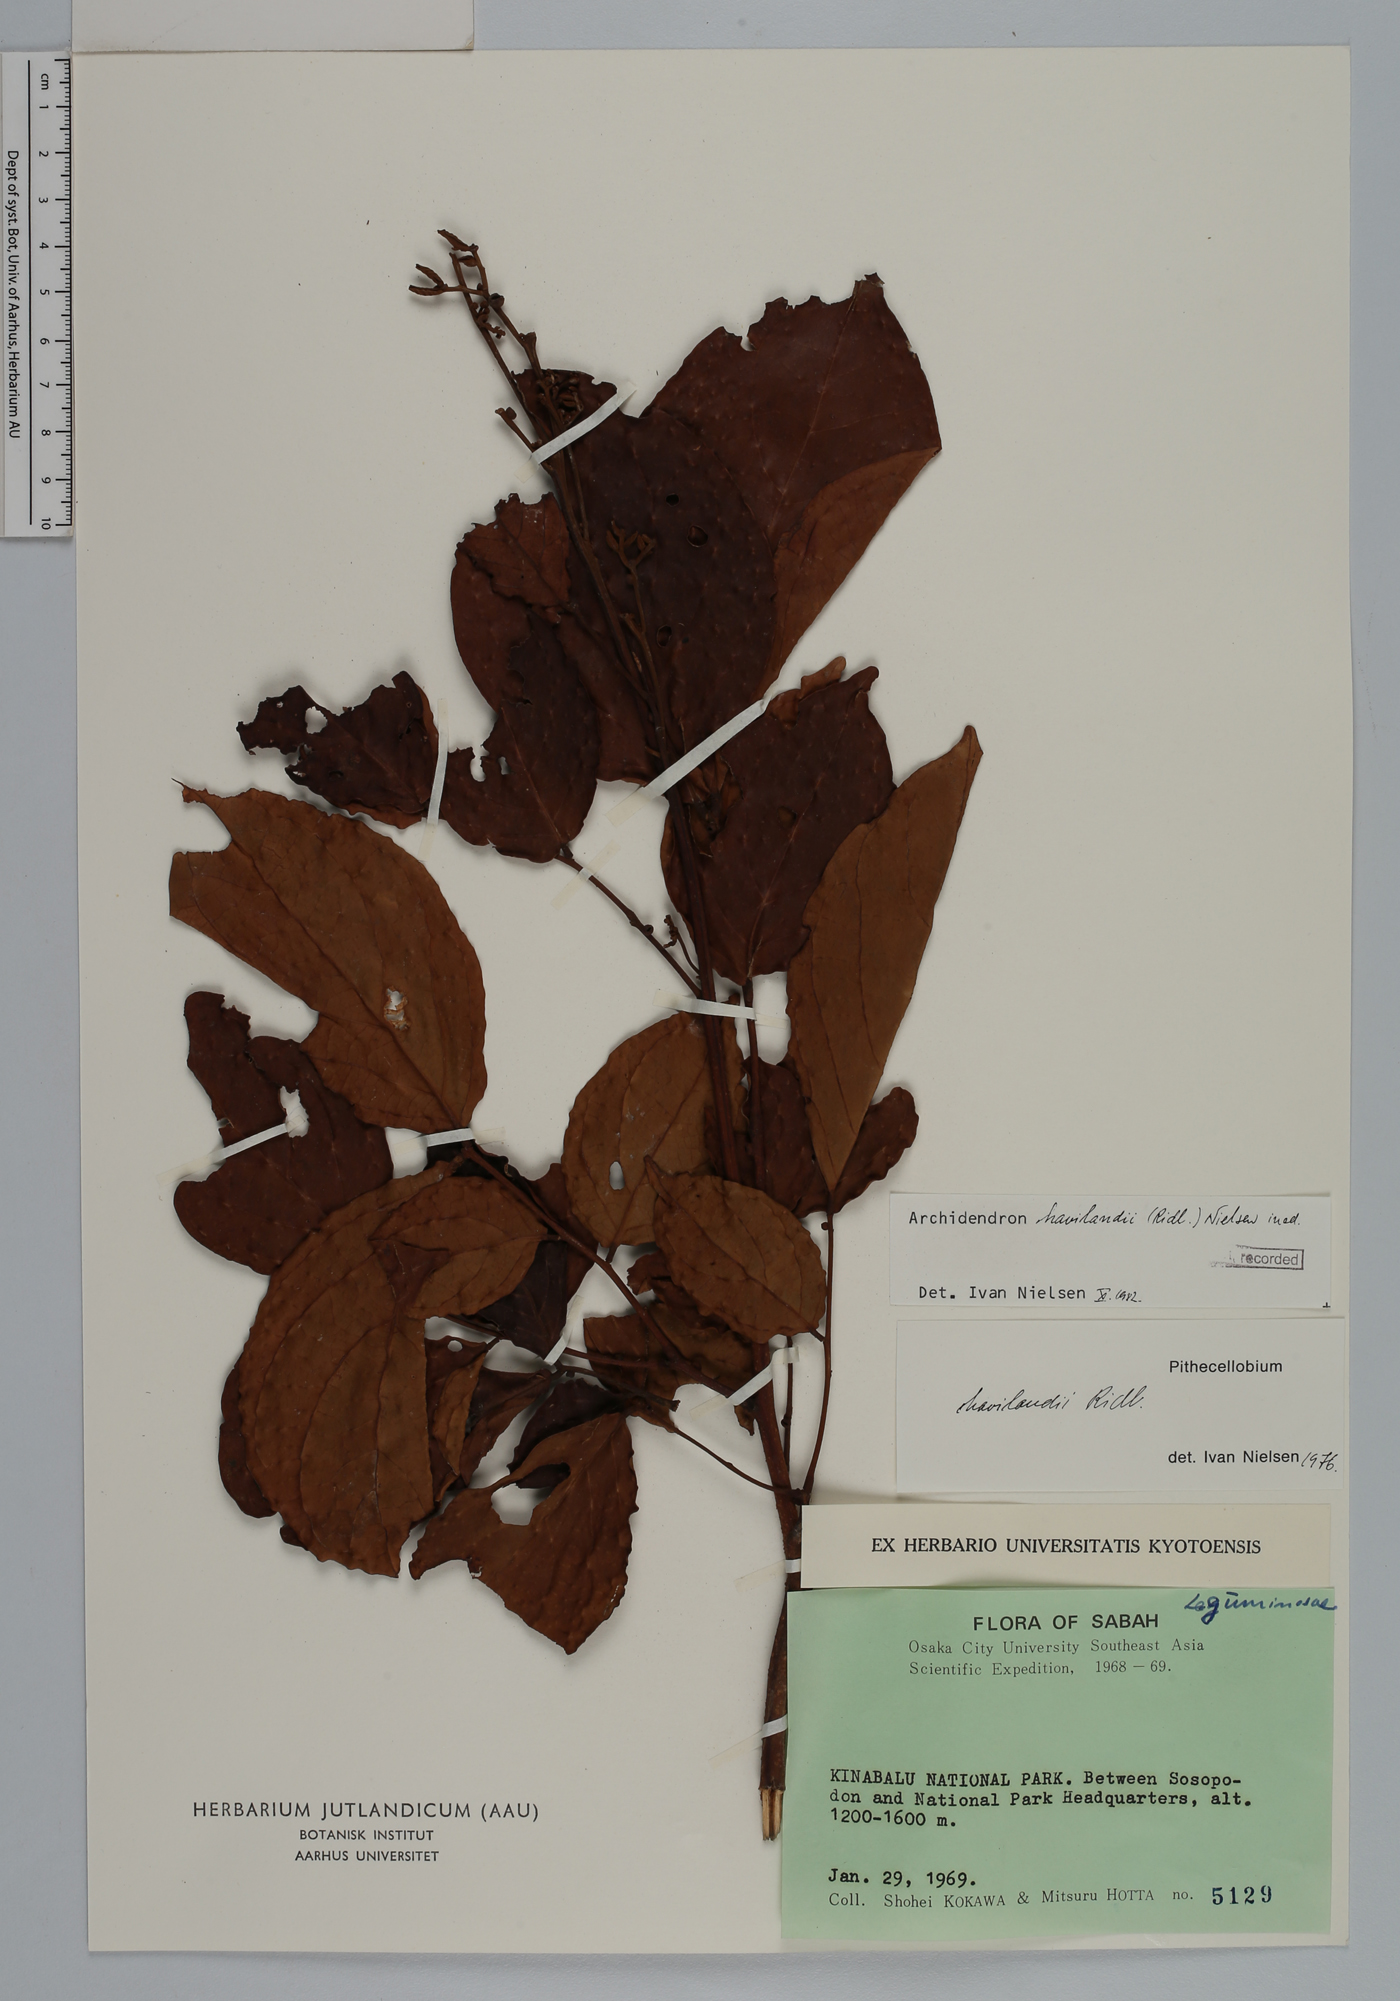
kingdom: Plantae
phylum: Tracheophyta
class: Magnoliopsida
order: Fabales
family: Fabaceae
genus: Archidendron
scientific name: Archidendron havilandii
